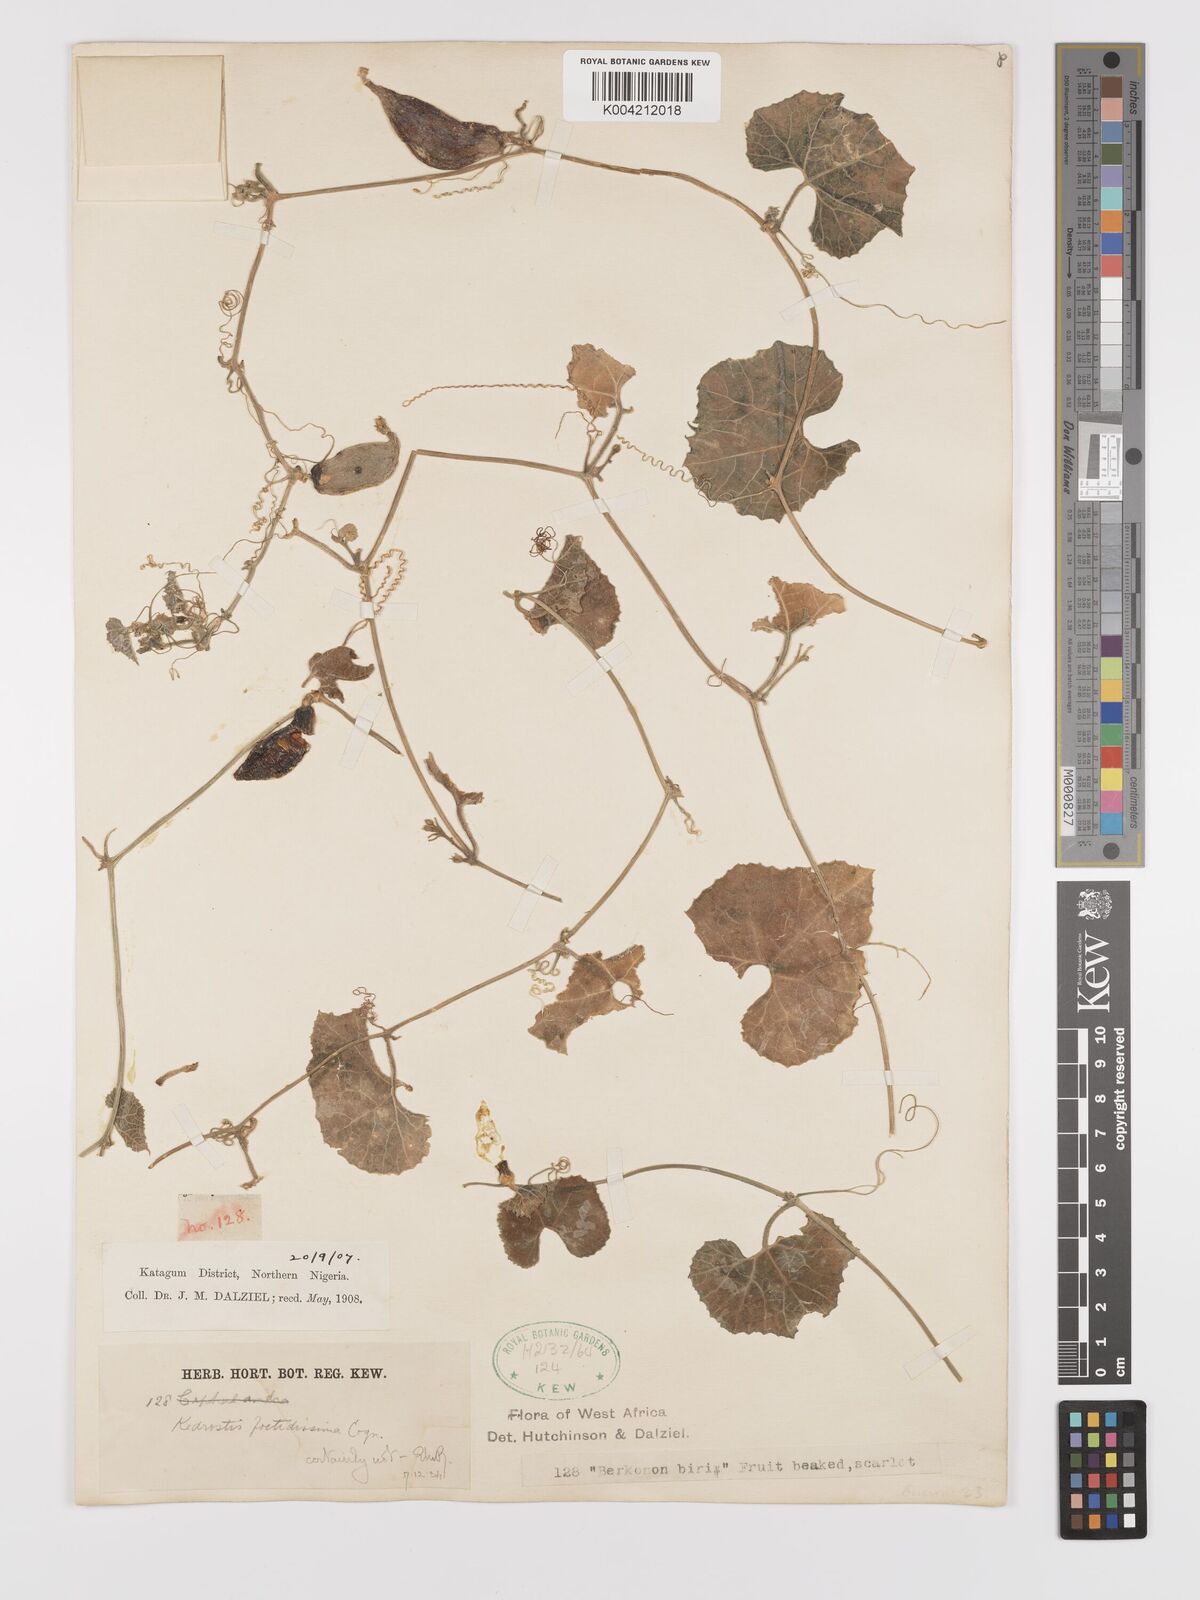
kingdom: Plantae
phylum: Tracheophyta
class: Magnoliopsida
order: Cucurbitales
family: Cucurbitaceae
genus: Kedrostis
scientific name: Kedrostis hirtella
